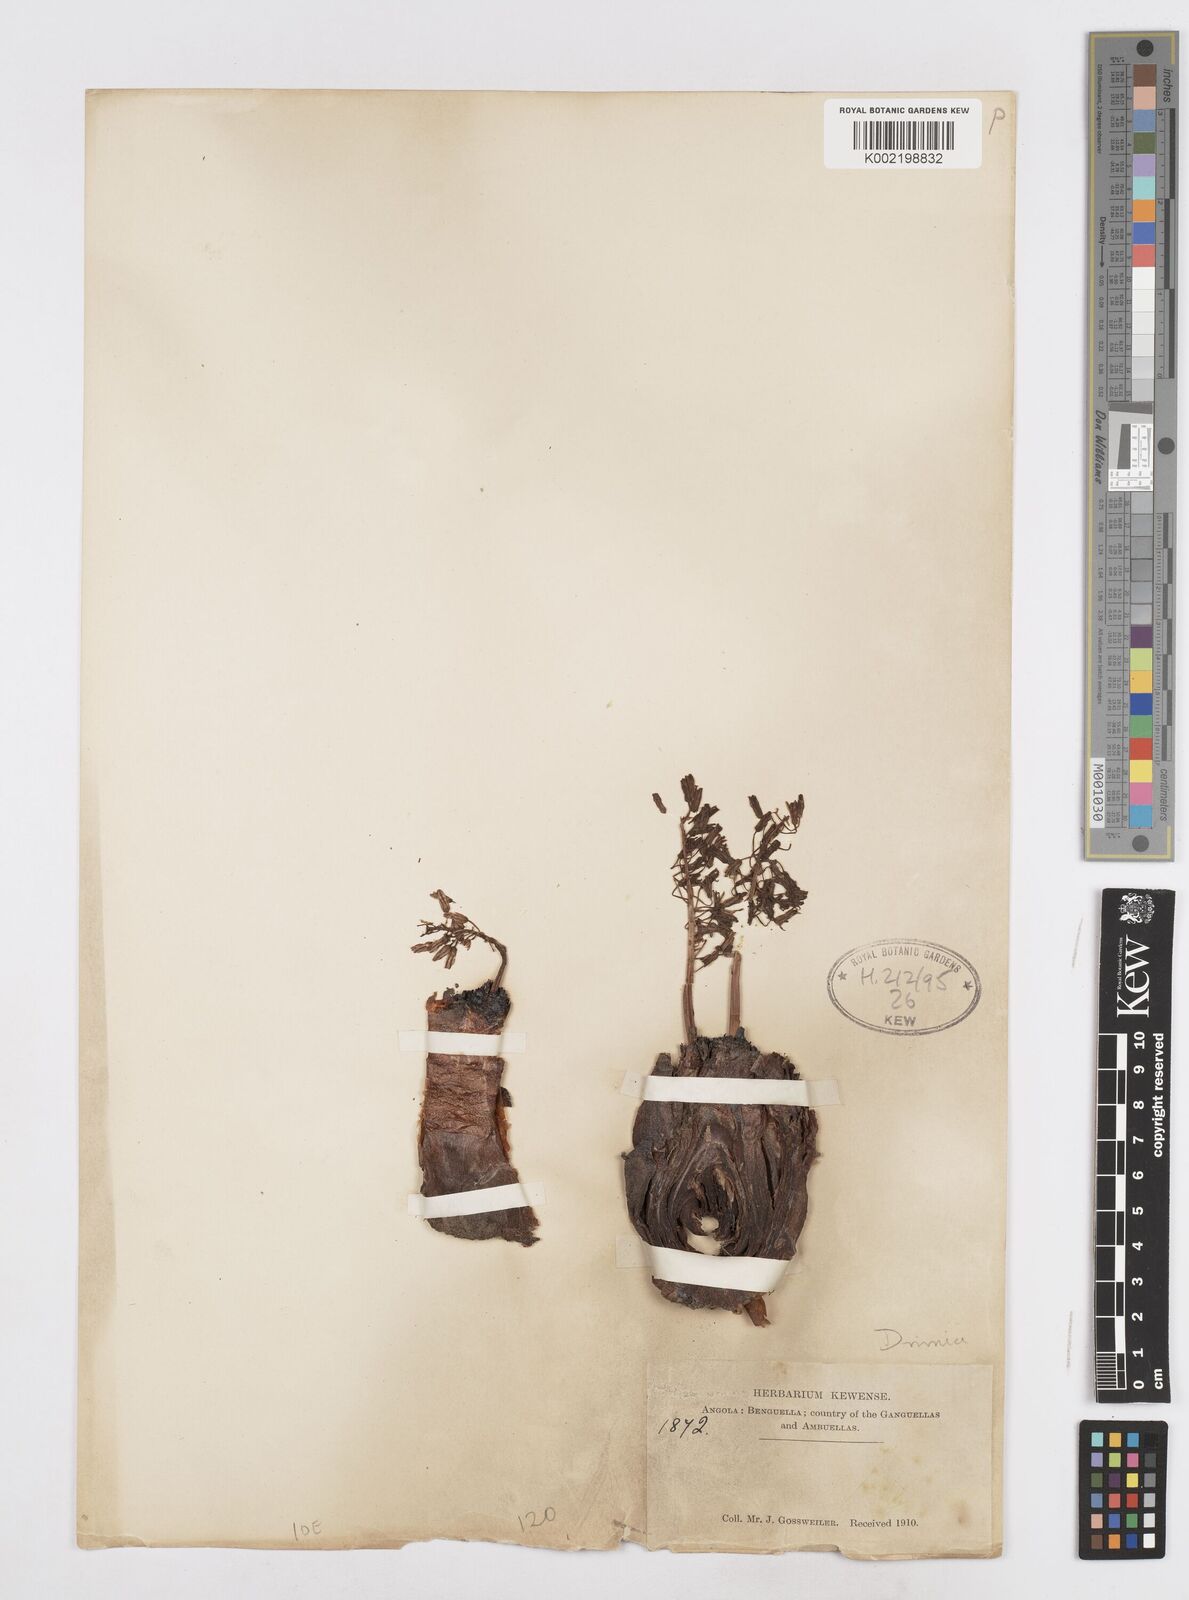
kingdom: Plantae
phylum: Tracheophyta
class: Liliopsida
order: Asparagales
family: Asparagaceae
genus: Drimia
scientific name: Drimia
